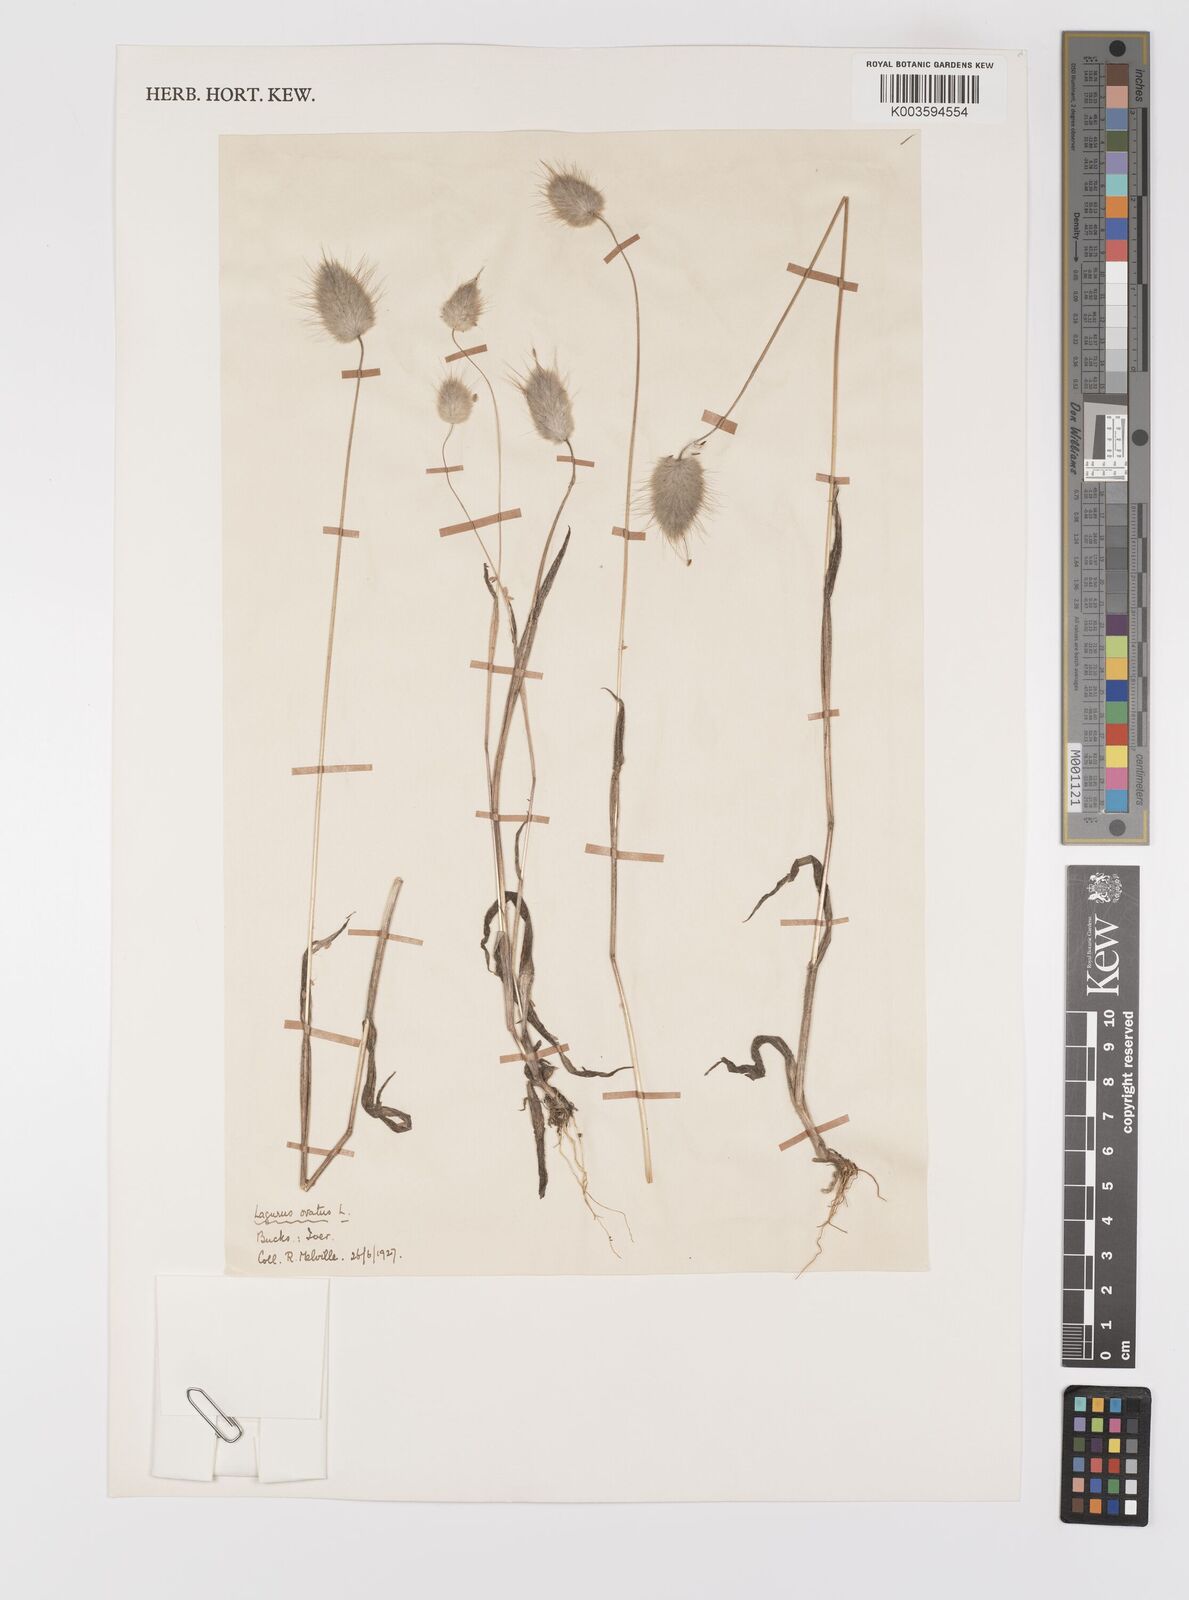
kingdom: Plantae
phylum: Tracheophyta
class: Liliopsida
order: Poales
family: Poaceae
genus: Lagurus
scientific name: Lagurus ovatus
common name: Hare's-tail
